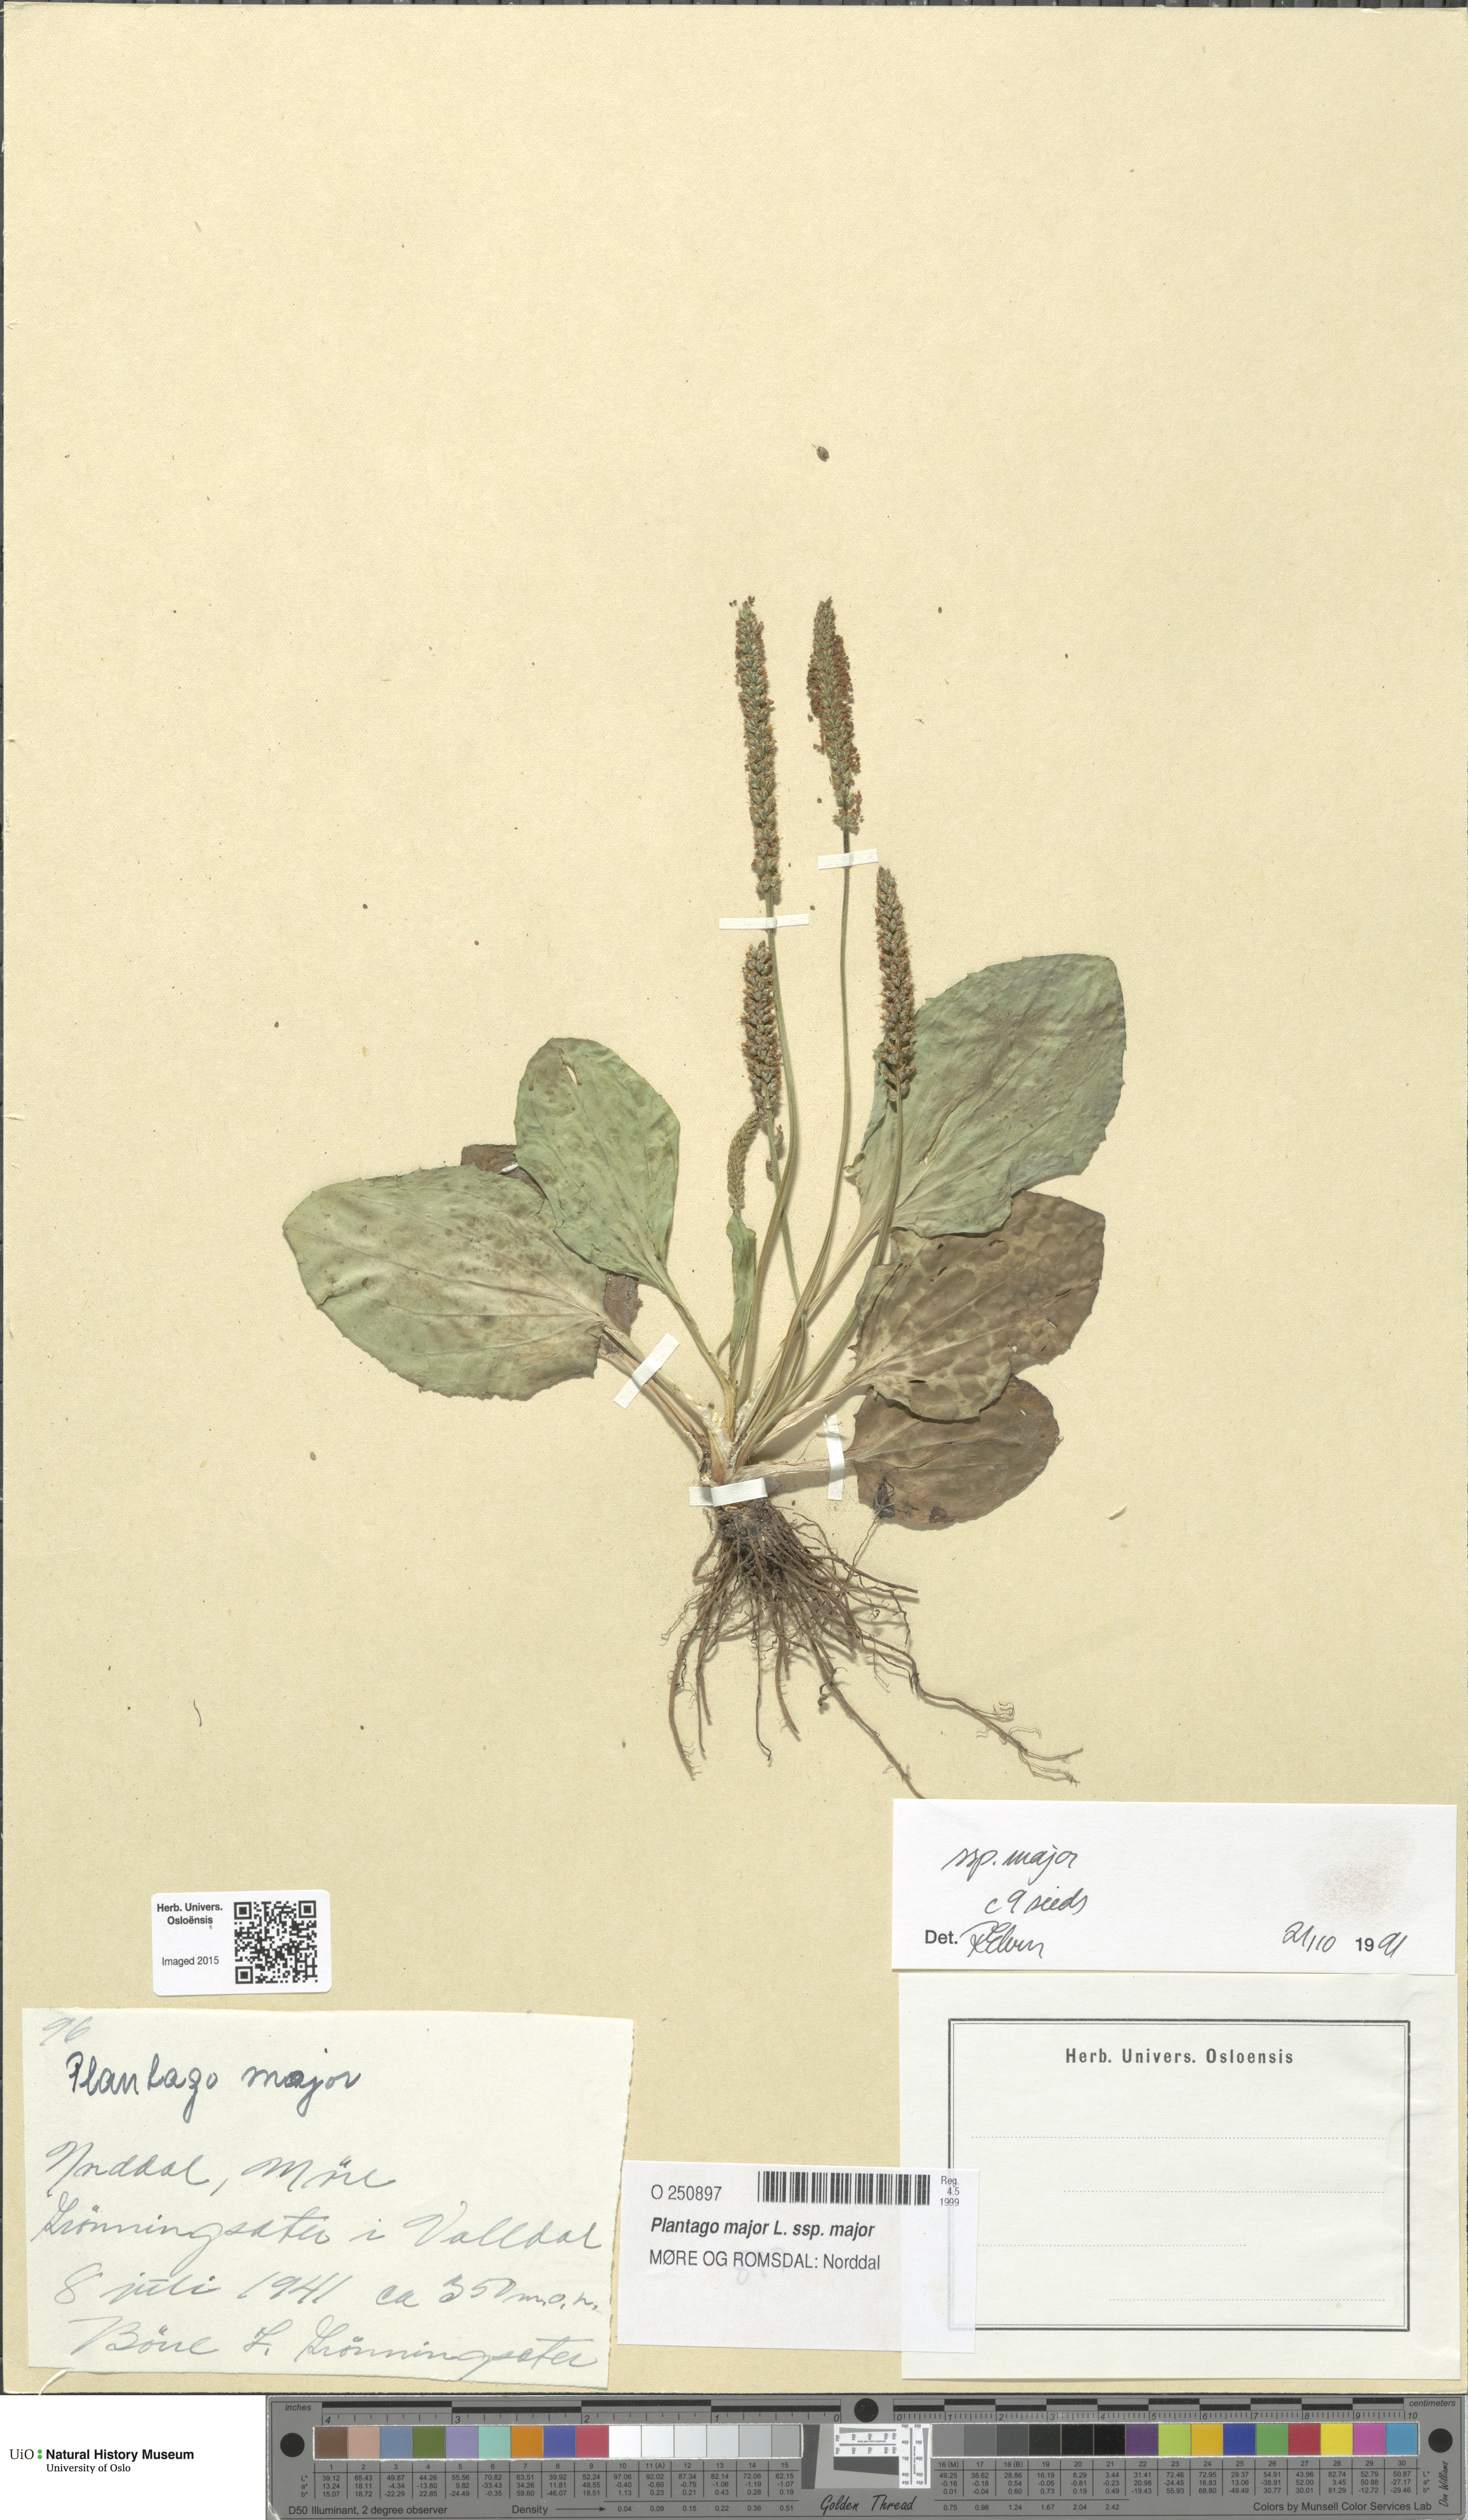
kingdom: Plantae
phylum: Tracheophyta
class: Magnoliopsida
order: Lamiales
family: Plantaginaceae
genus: Plantago
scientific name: Plantago major
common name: Common plantain
